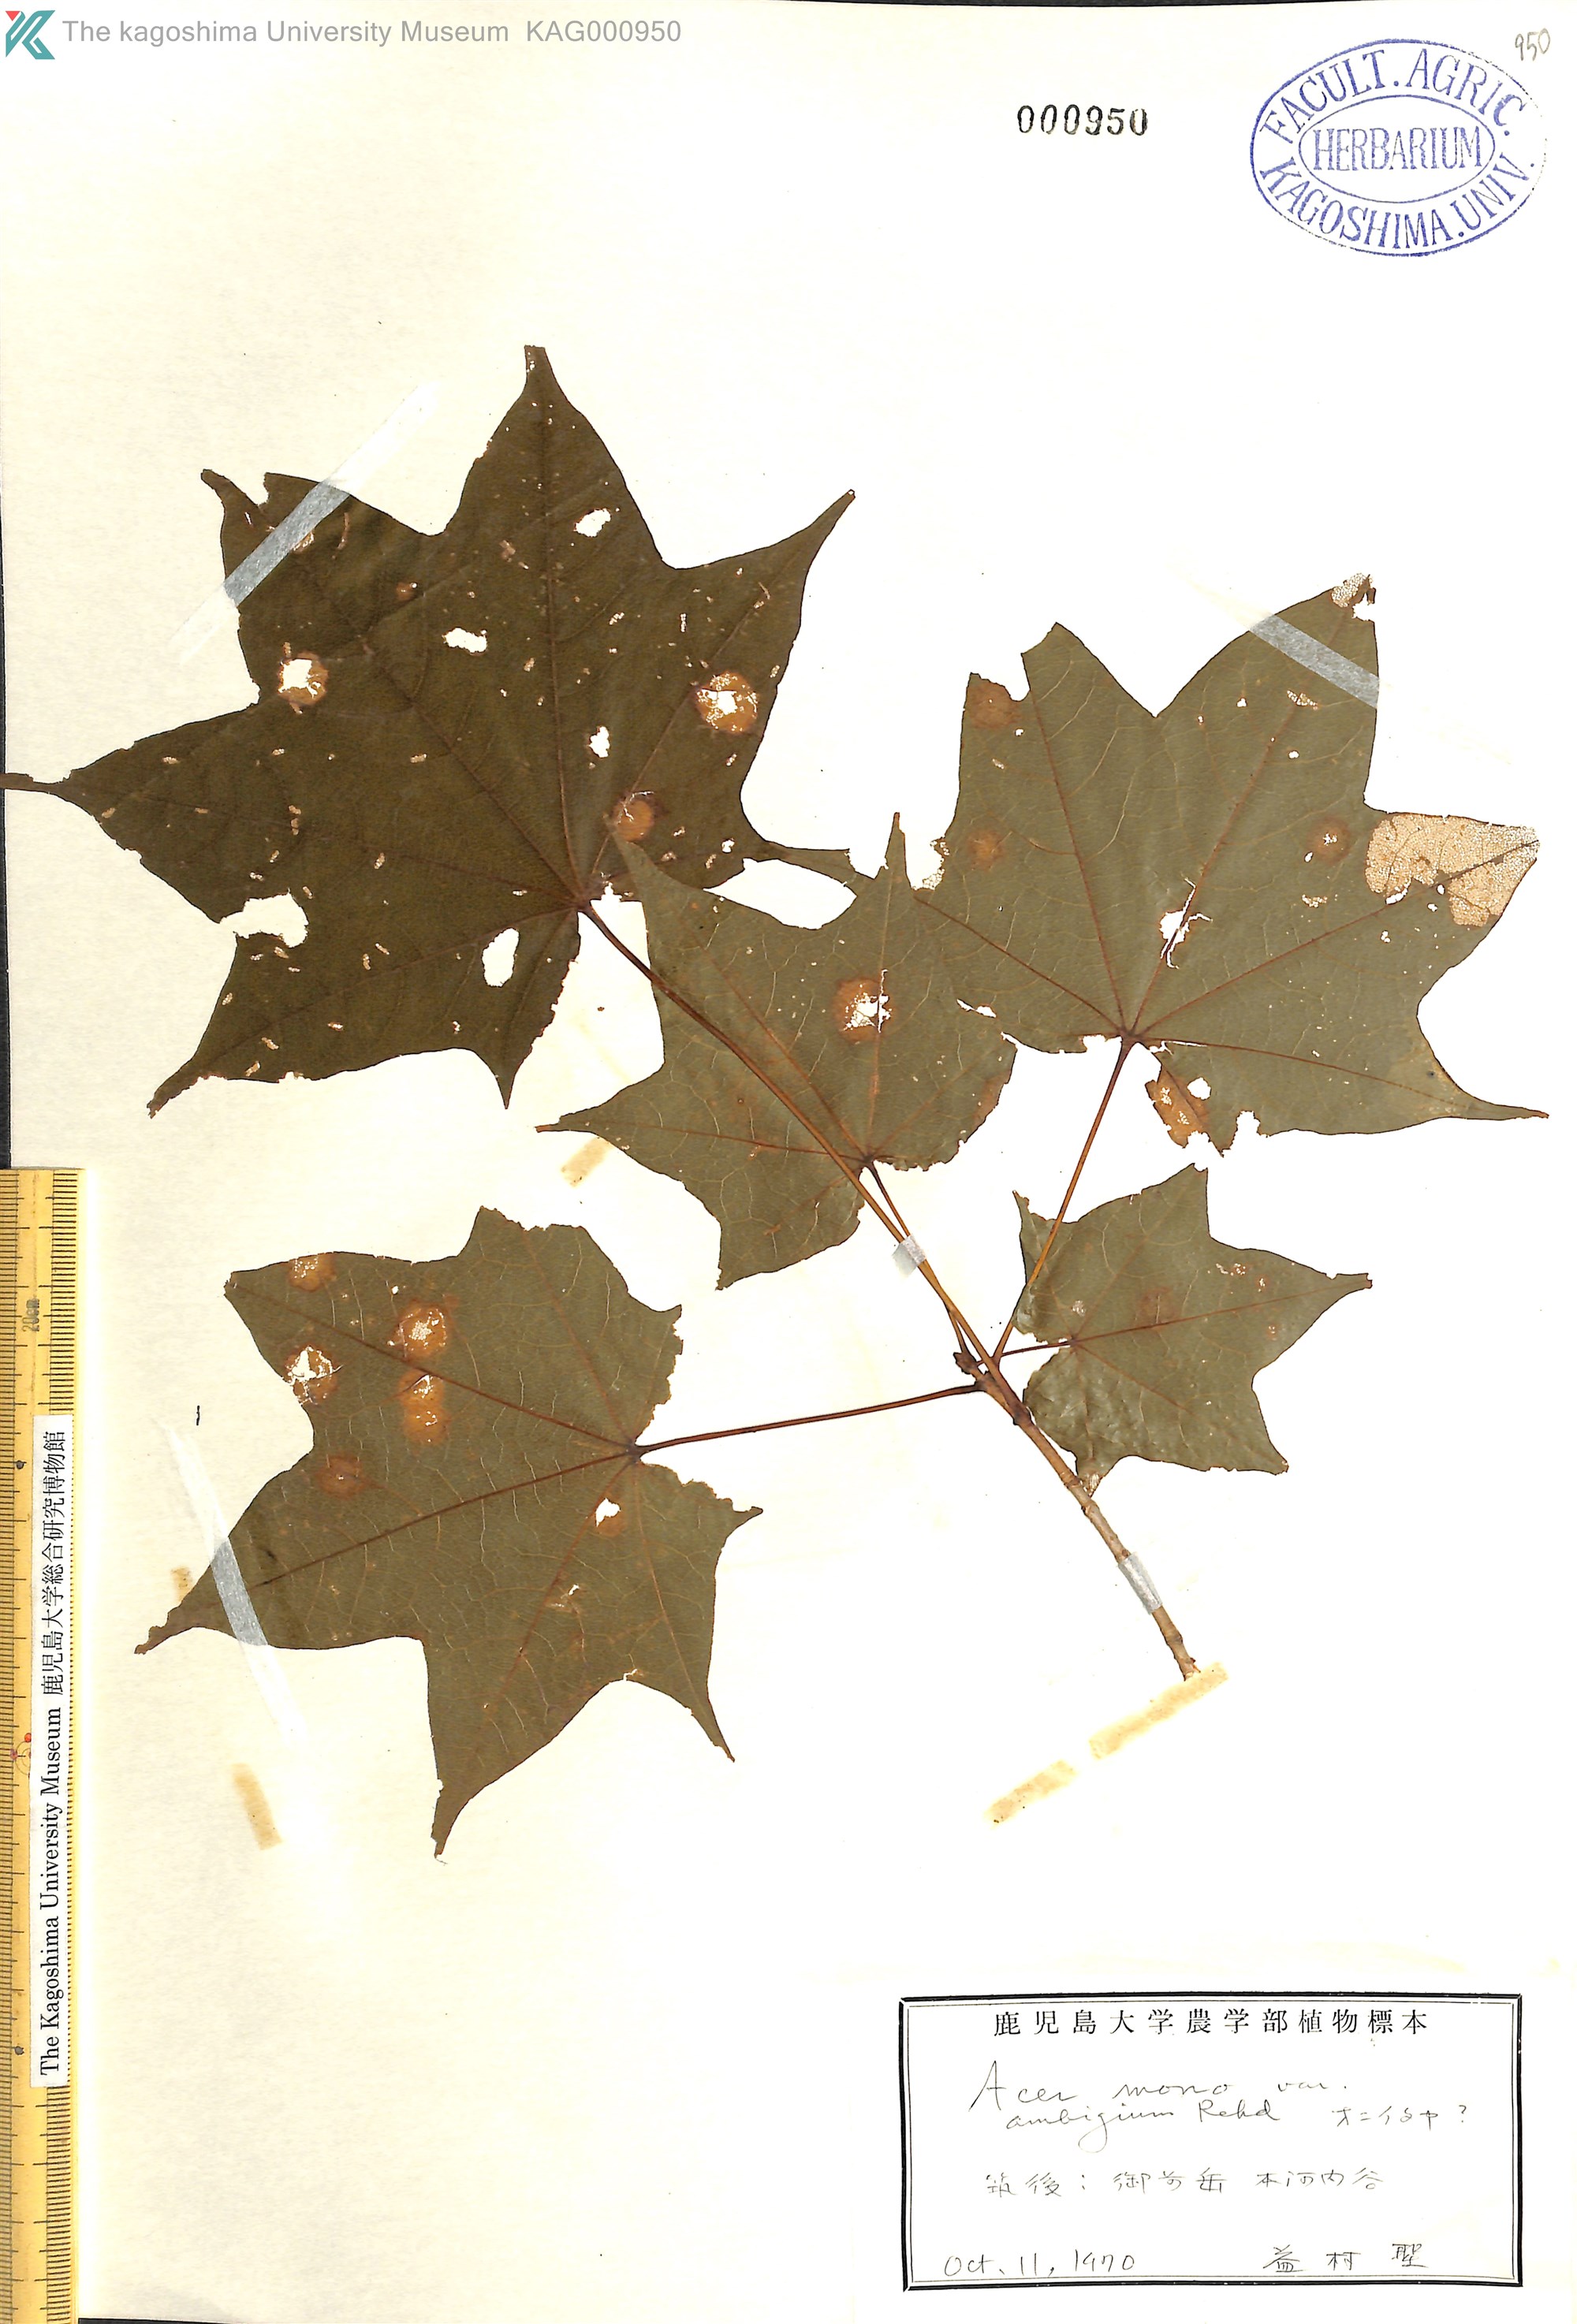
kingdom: Plantae
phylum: Tracheophyta
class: Magnoliopsida
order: Sapindales
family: Sapindaceae
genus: Acer
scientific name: Acer pictum
